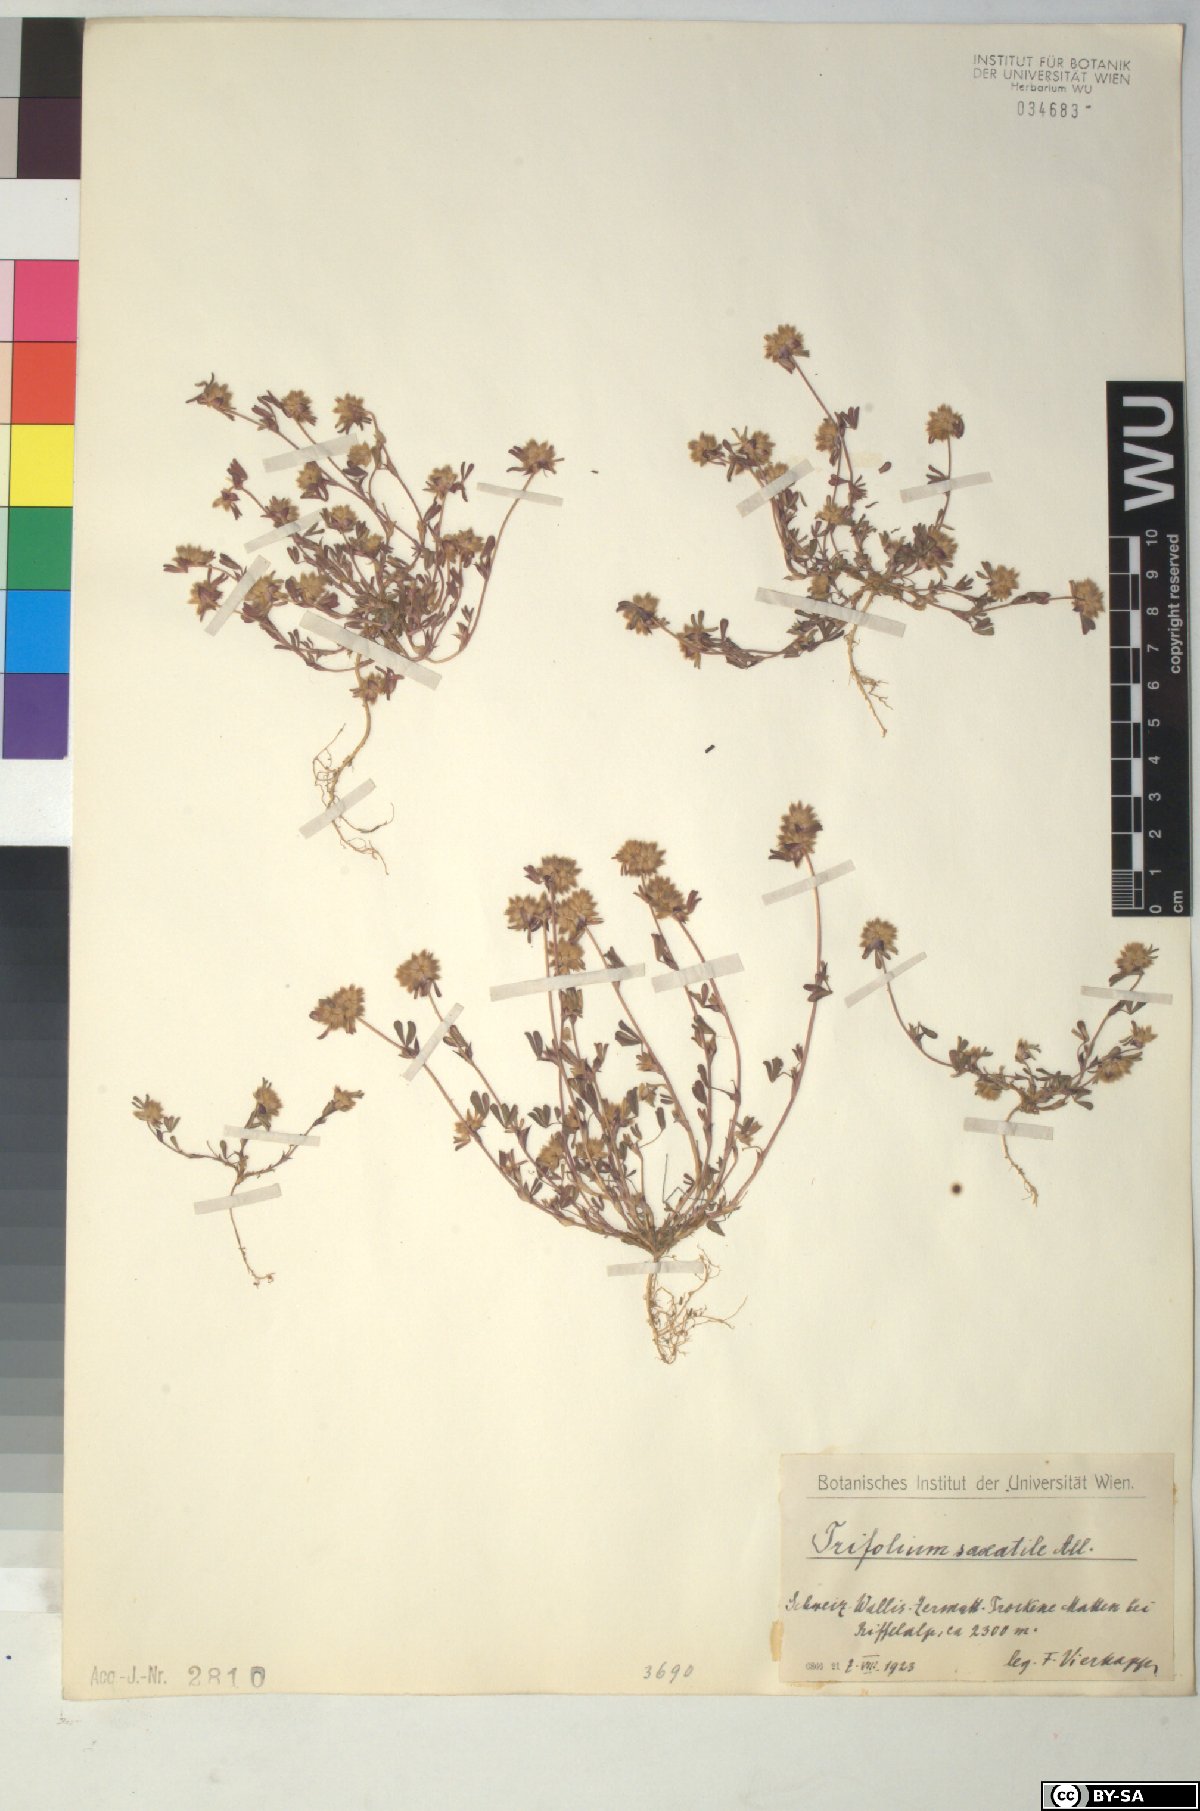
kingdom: Plantae
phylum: Tracheophyta
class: Magnoliopsida
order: Fabales
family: Fabaceae
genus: Trifolium
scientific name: Trifolium saxatile
